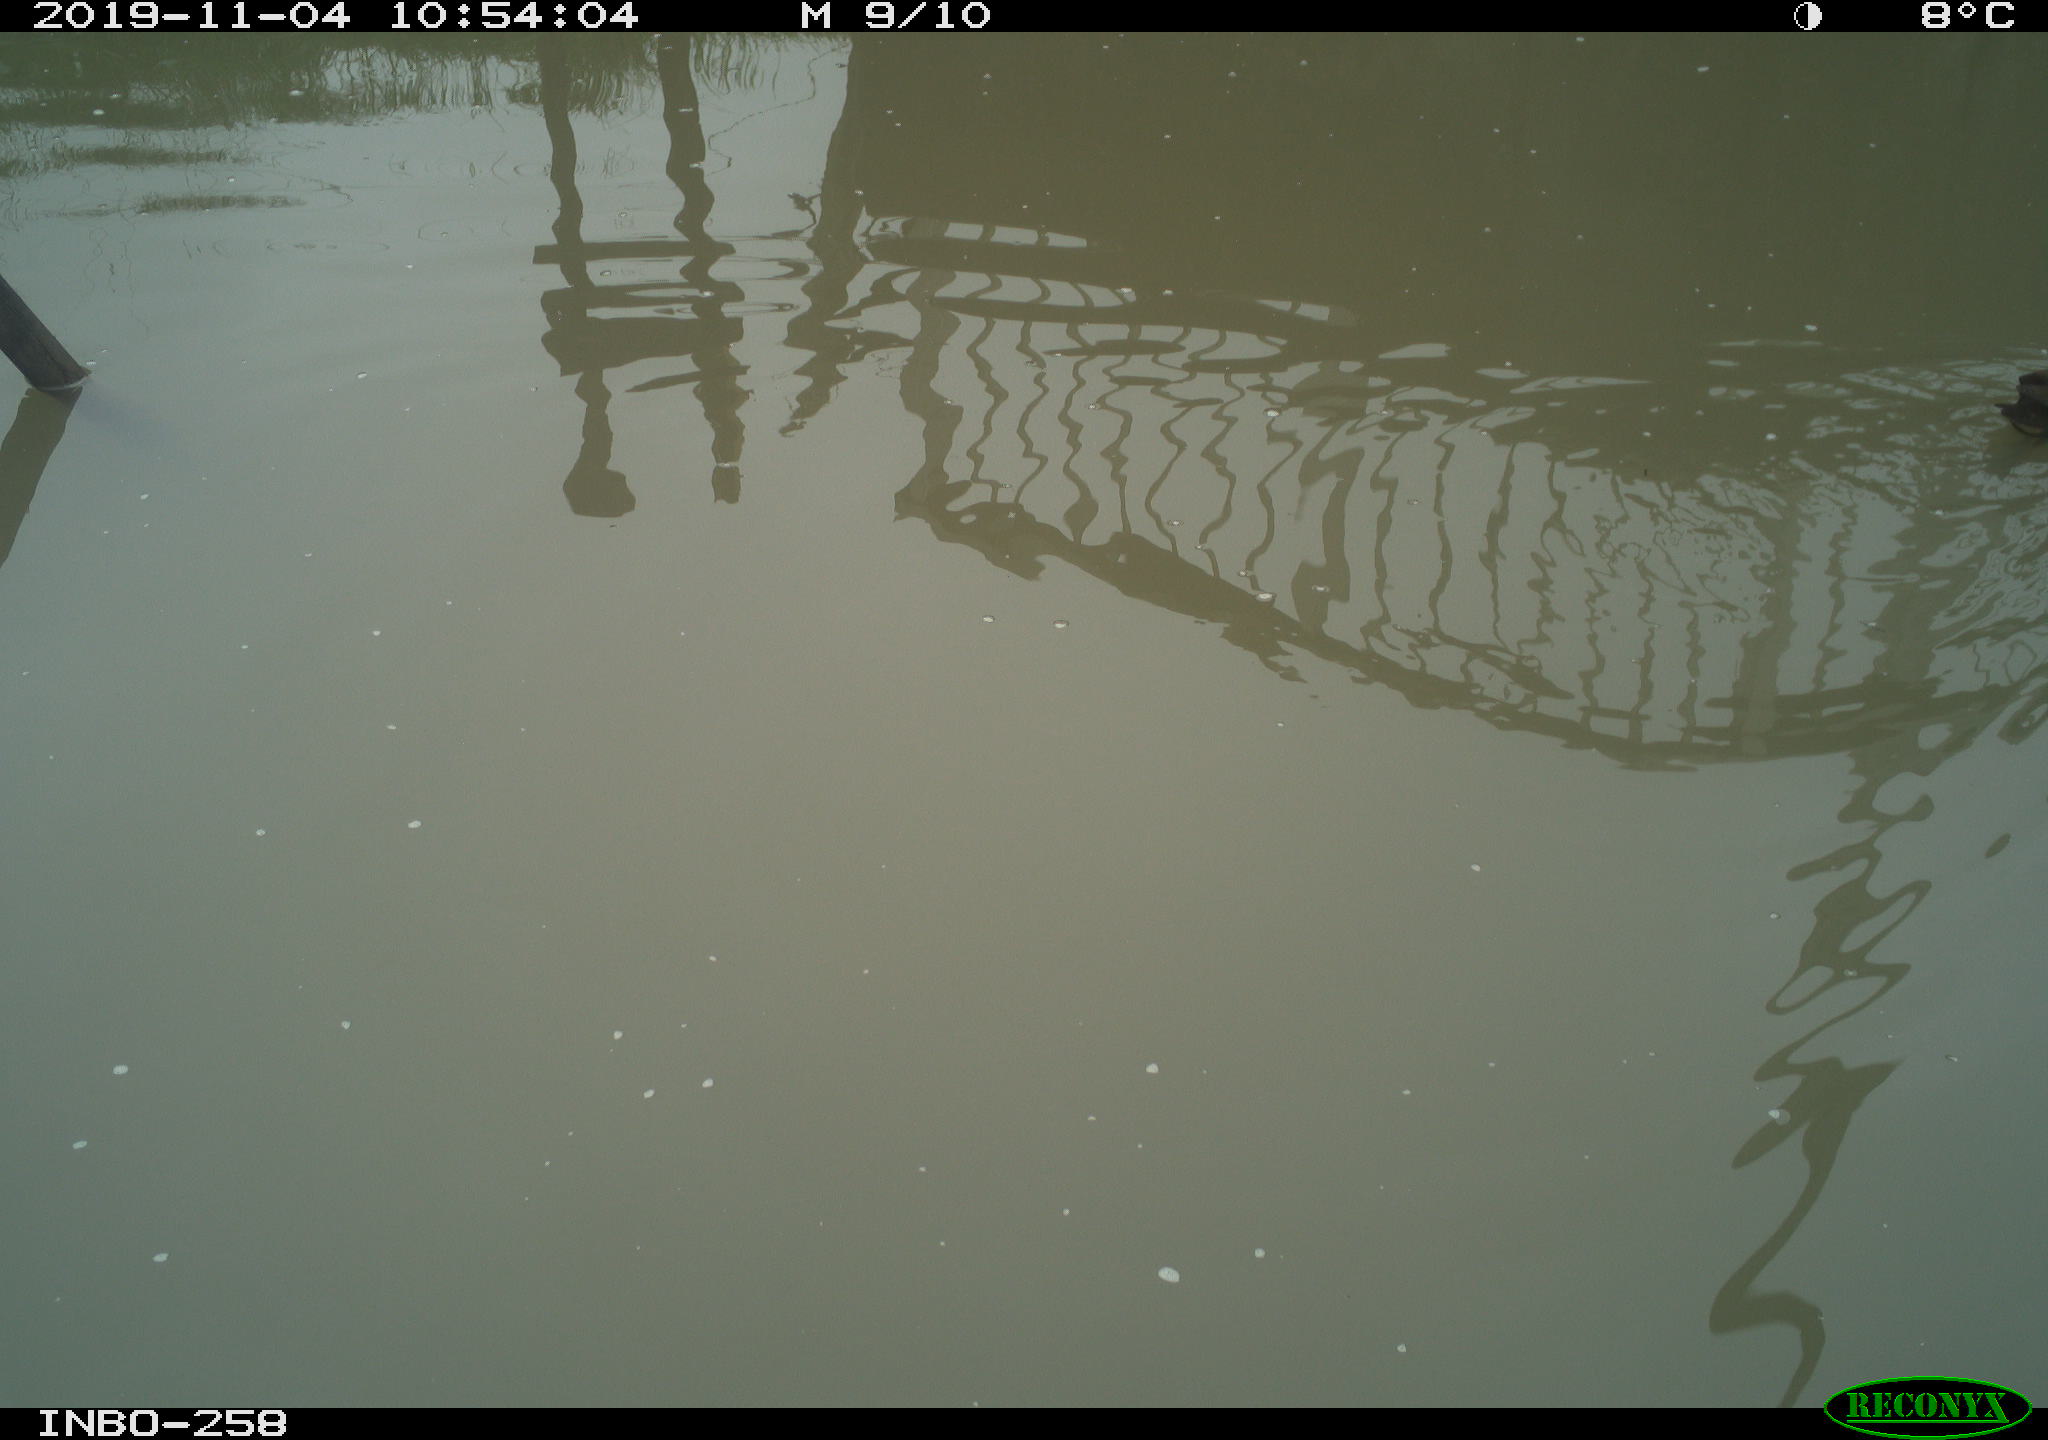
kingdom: Animalia
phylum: Chordata
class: Aves
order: Gruiformes
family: Rallidae
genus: Gallinula
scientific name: Gallinula chloropus
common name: Common moorhen
